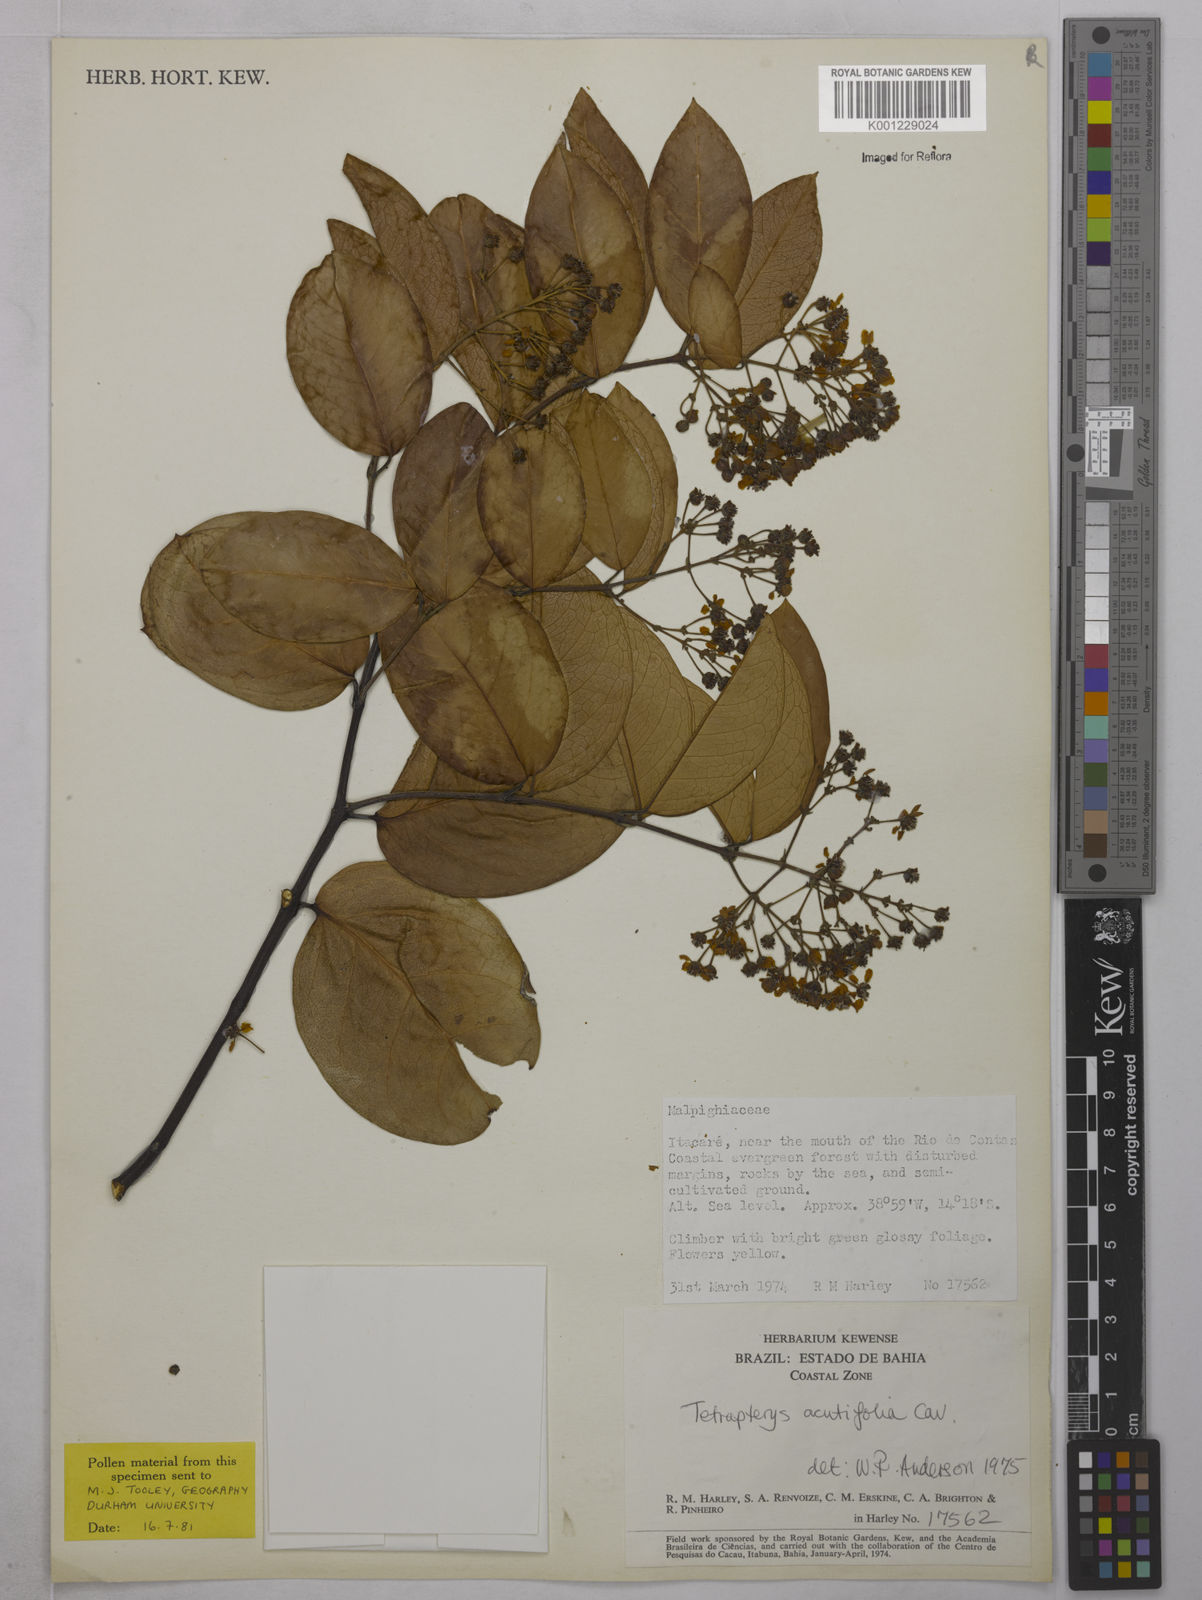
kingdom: Plantae
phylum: Tracheophyta
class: Magnoliopsida
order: Malpighiales
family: Malpighiaceae
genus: Niedenzuella
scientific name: Niedenzuella acutifolia
